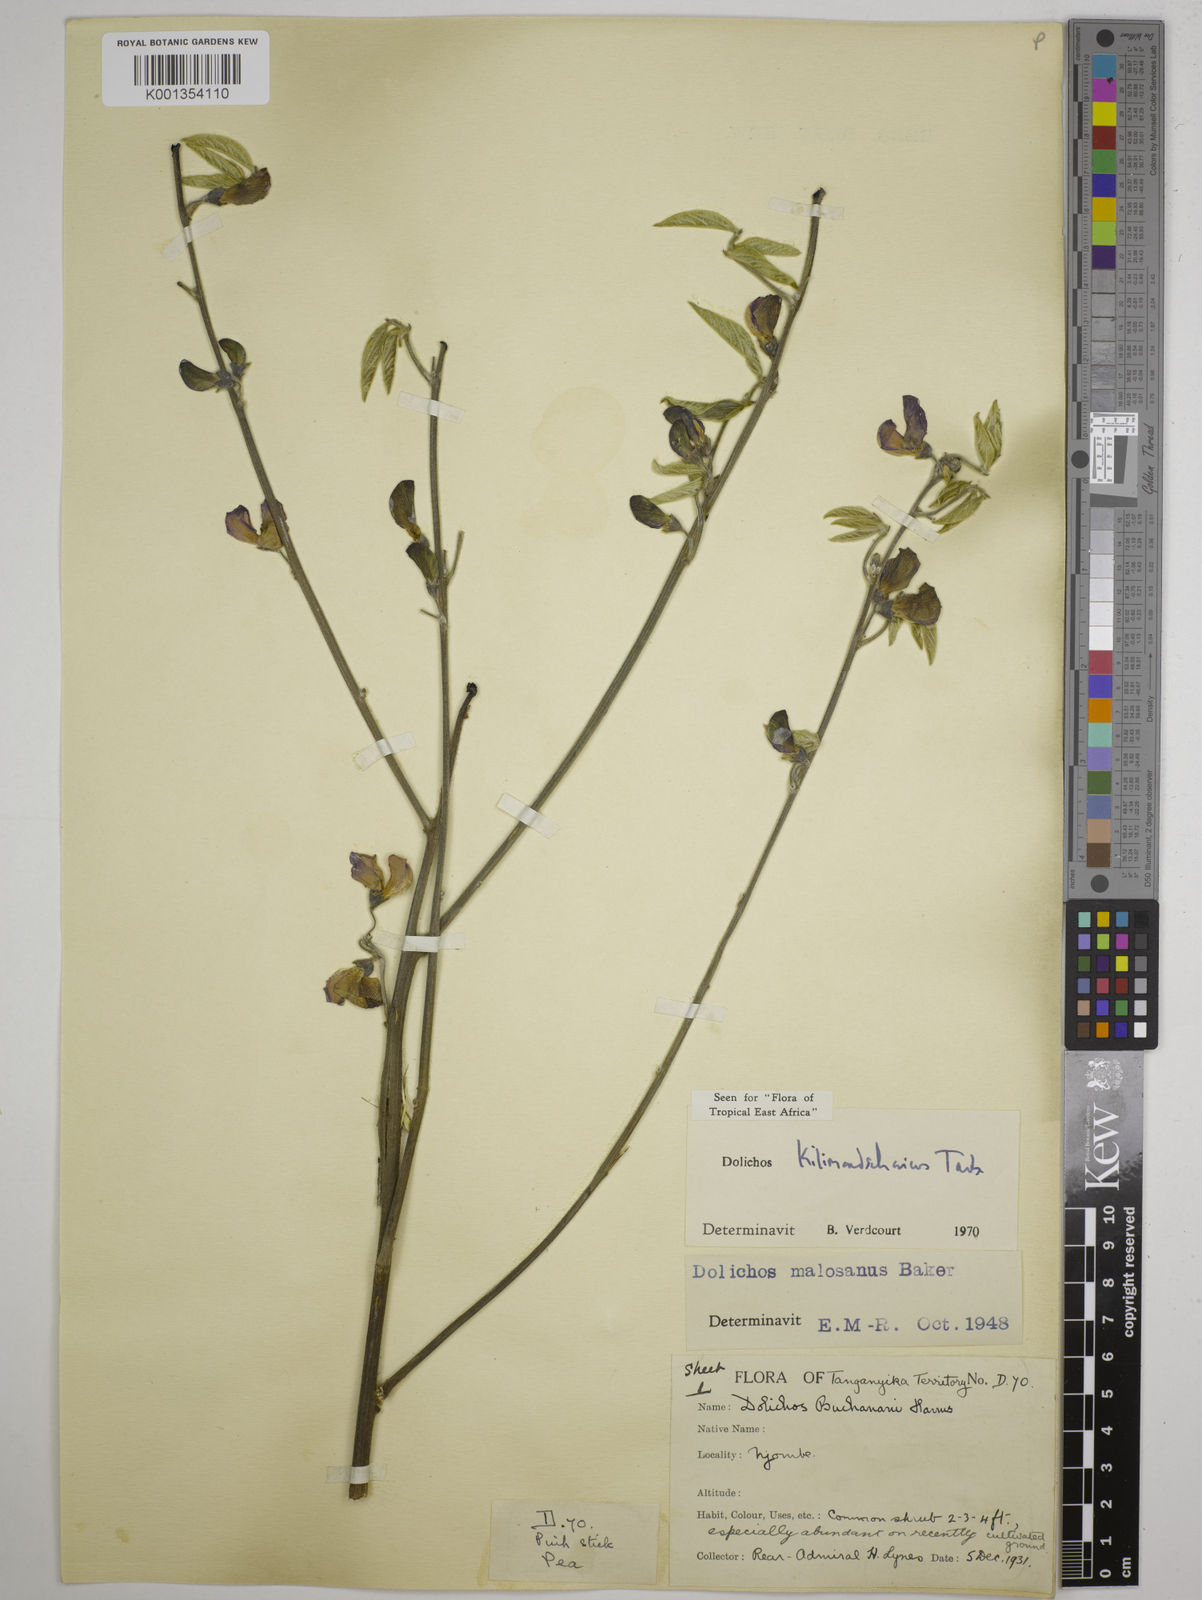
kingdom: Plantae
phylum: Tracheophyta
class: Magnoliopsida
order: Fabales
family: Fabaceae
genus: Dolichos
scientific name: Dolichos kilimandscharicus
